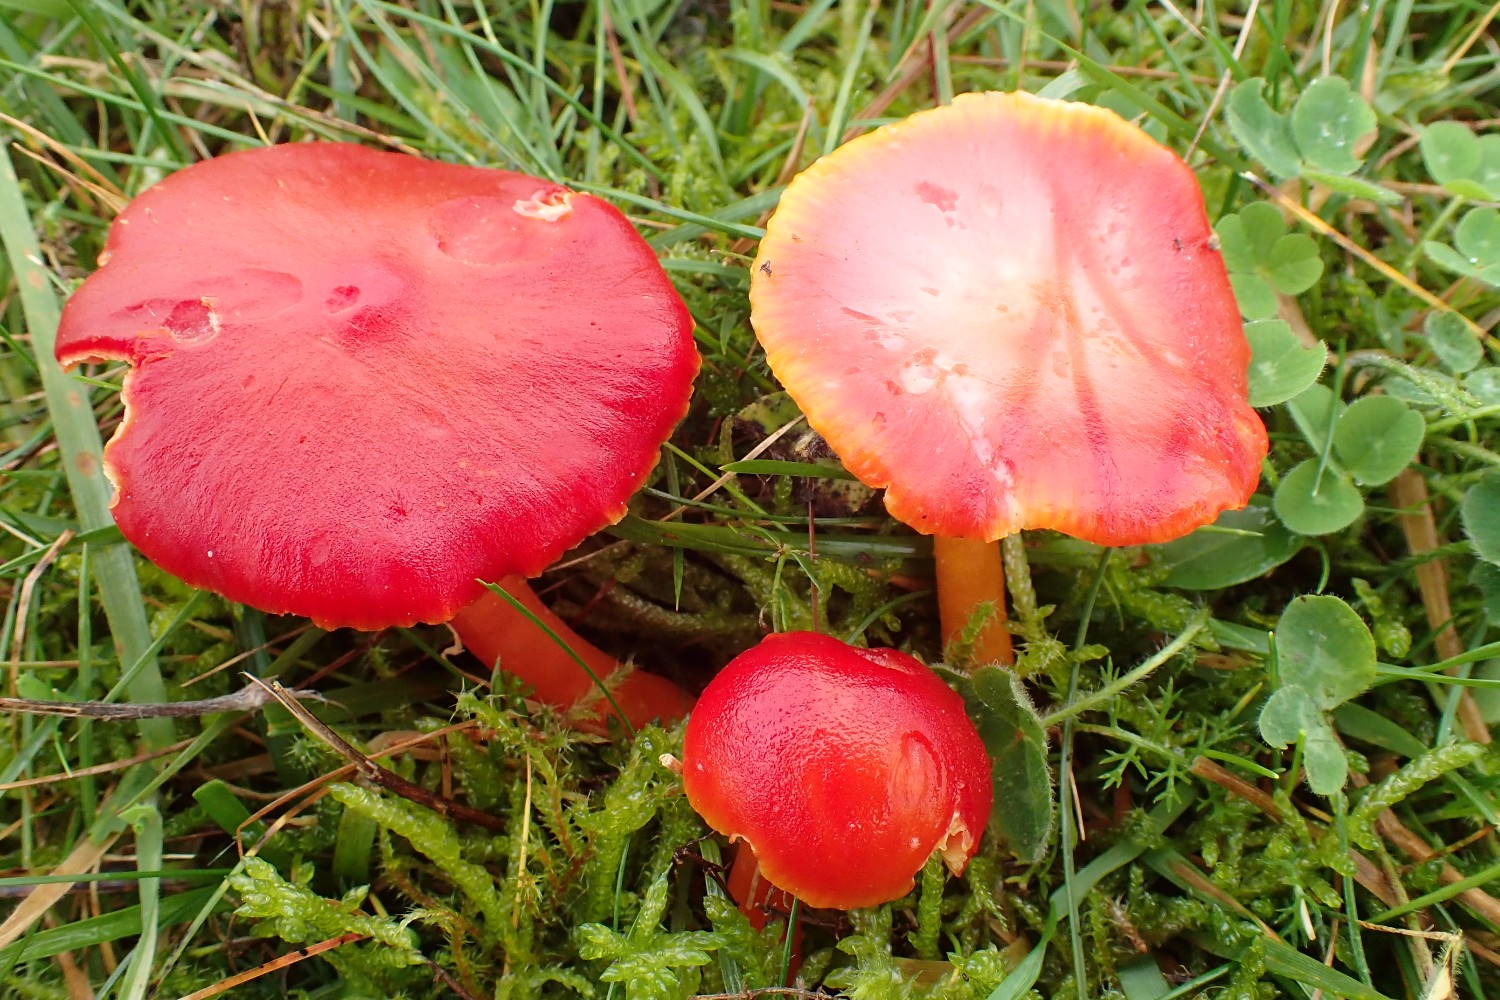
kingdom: Fungi
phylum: Basidiomycota
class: Agaricomycetes
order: Agaricales
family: Hygrophoraceae
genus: Hygrocybe
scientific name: Hygrocybe coccinea
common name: cinnober-vokshat
